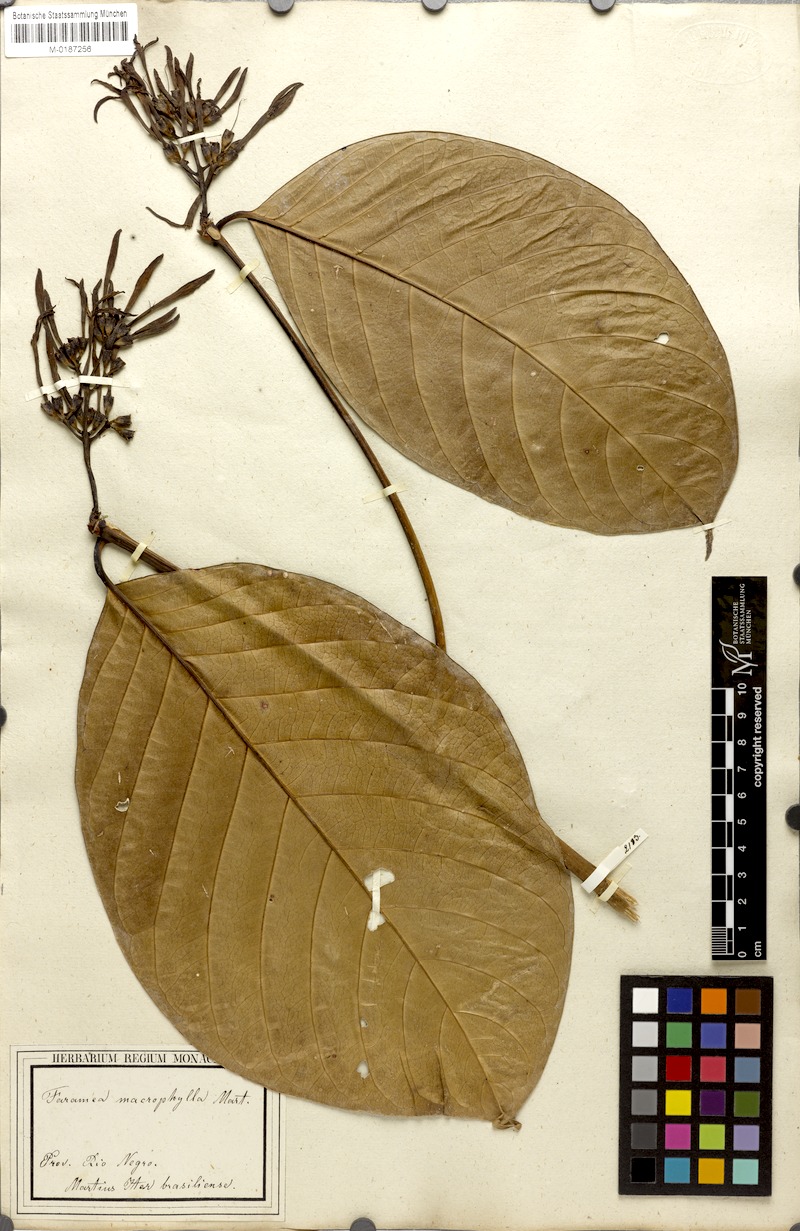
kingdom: Plantae
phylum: Tracheophyta
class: Magnoliopsida
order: Gentianales
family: Rubiaceae
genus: Coussarea
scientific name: Coussarea macrophylla
